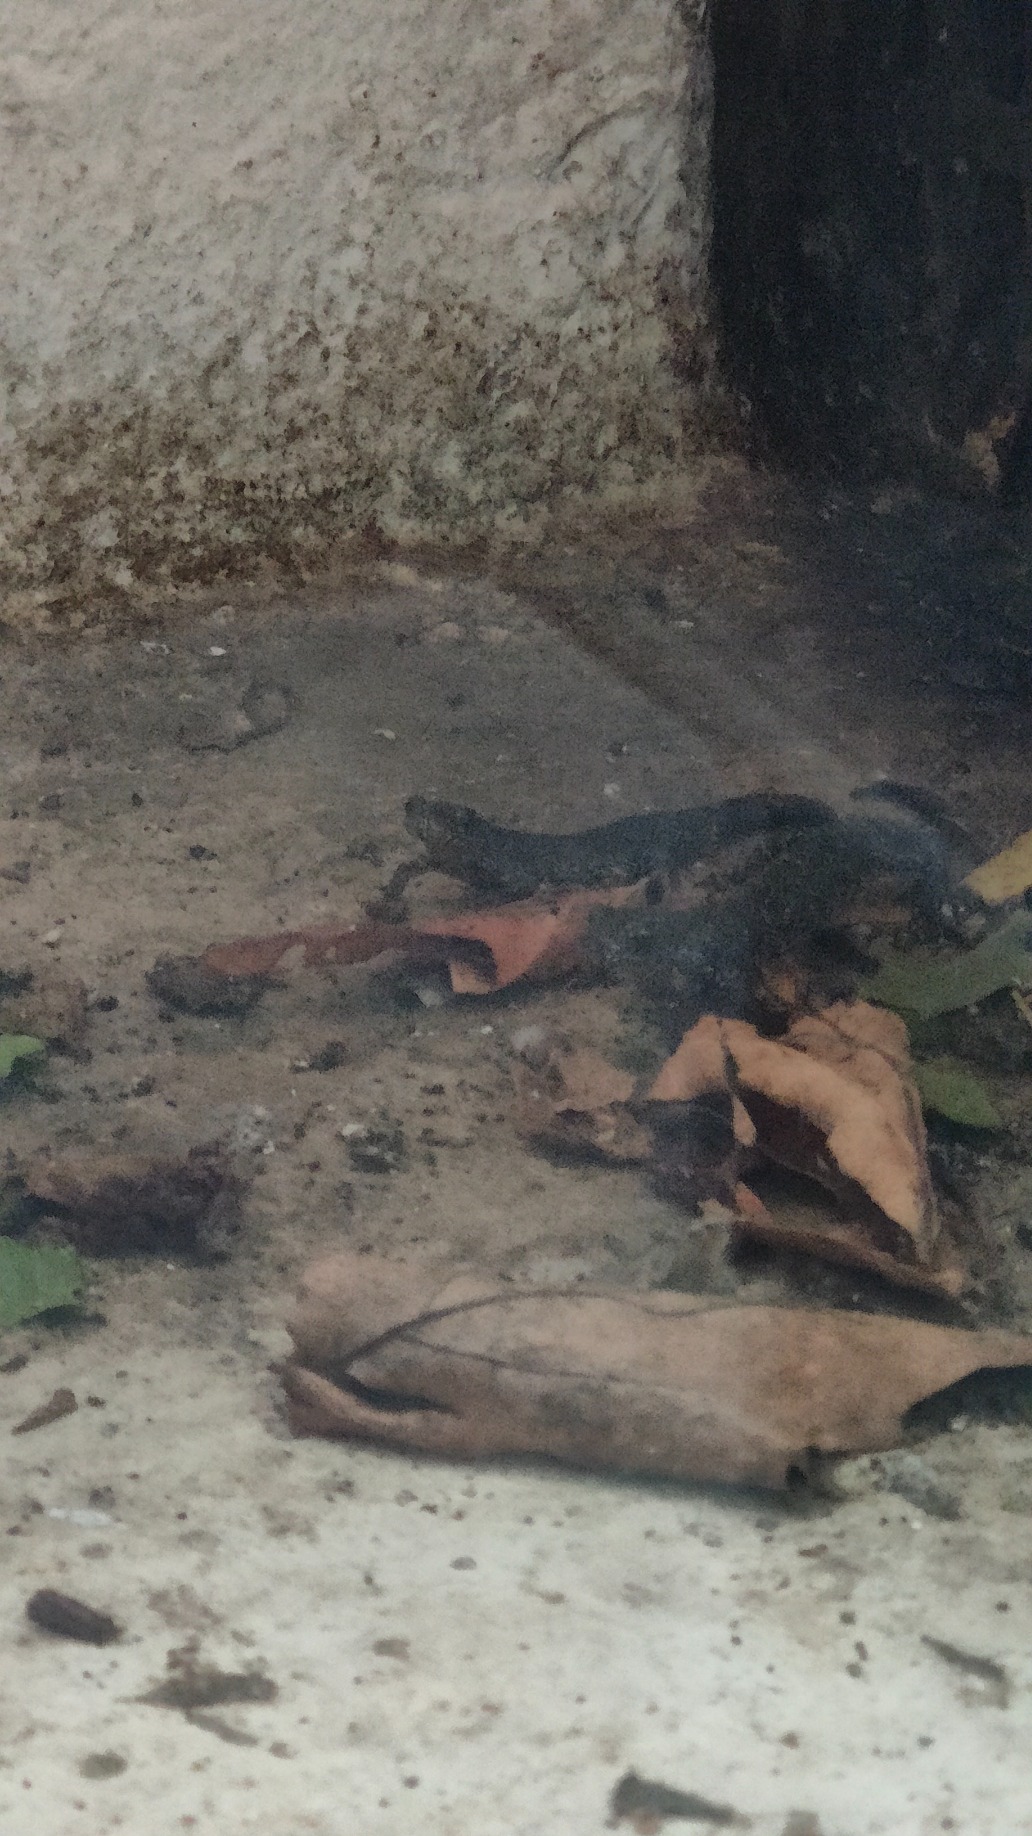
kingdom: Animalia
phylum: Chordata
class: Amphibia
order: Caudata
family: Salamandridae
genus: Triturus
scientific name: Triturus cristatus
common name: Stor vandsalamander
